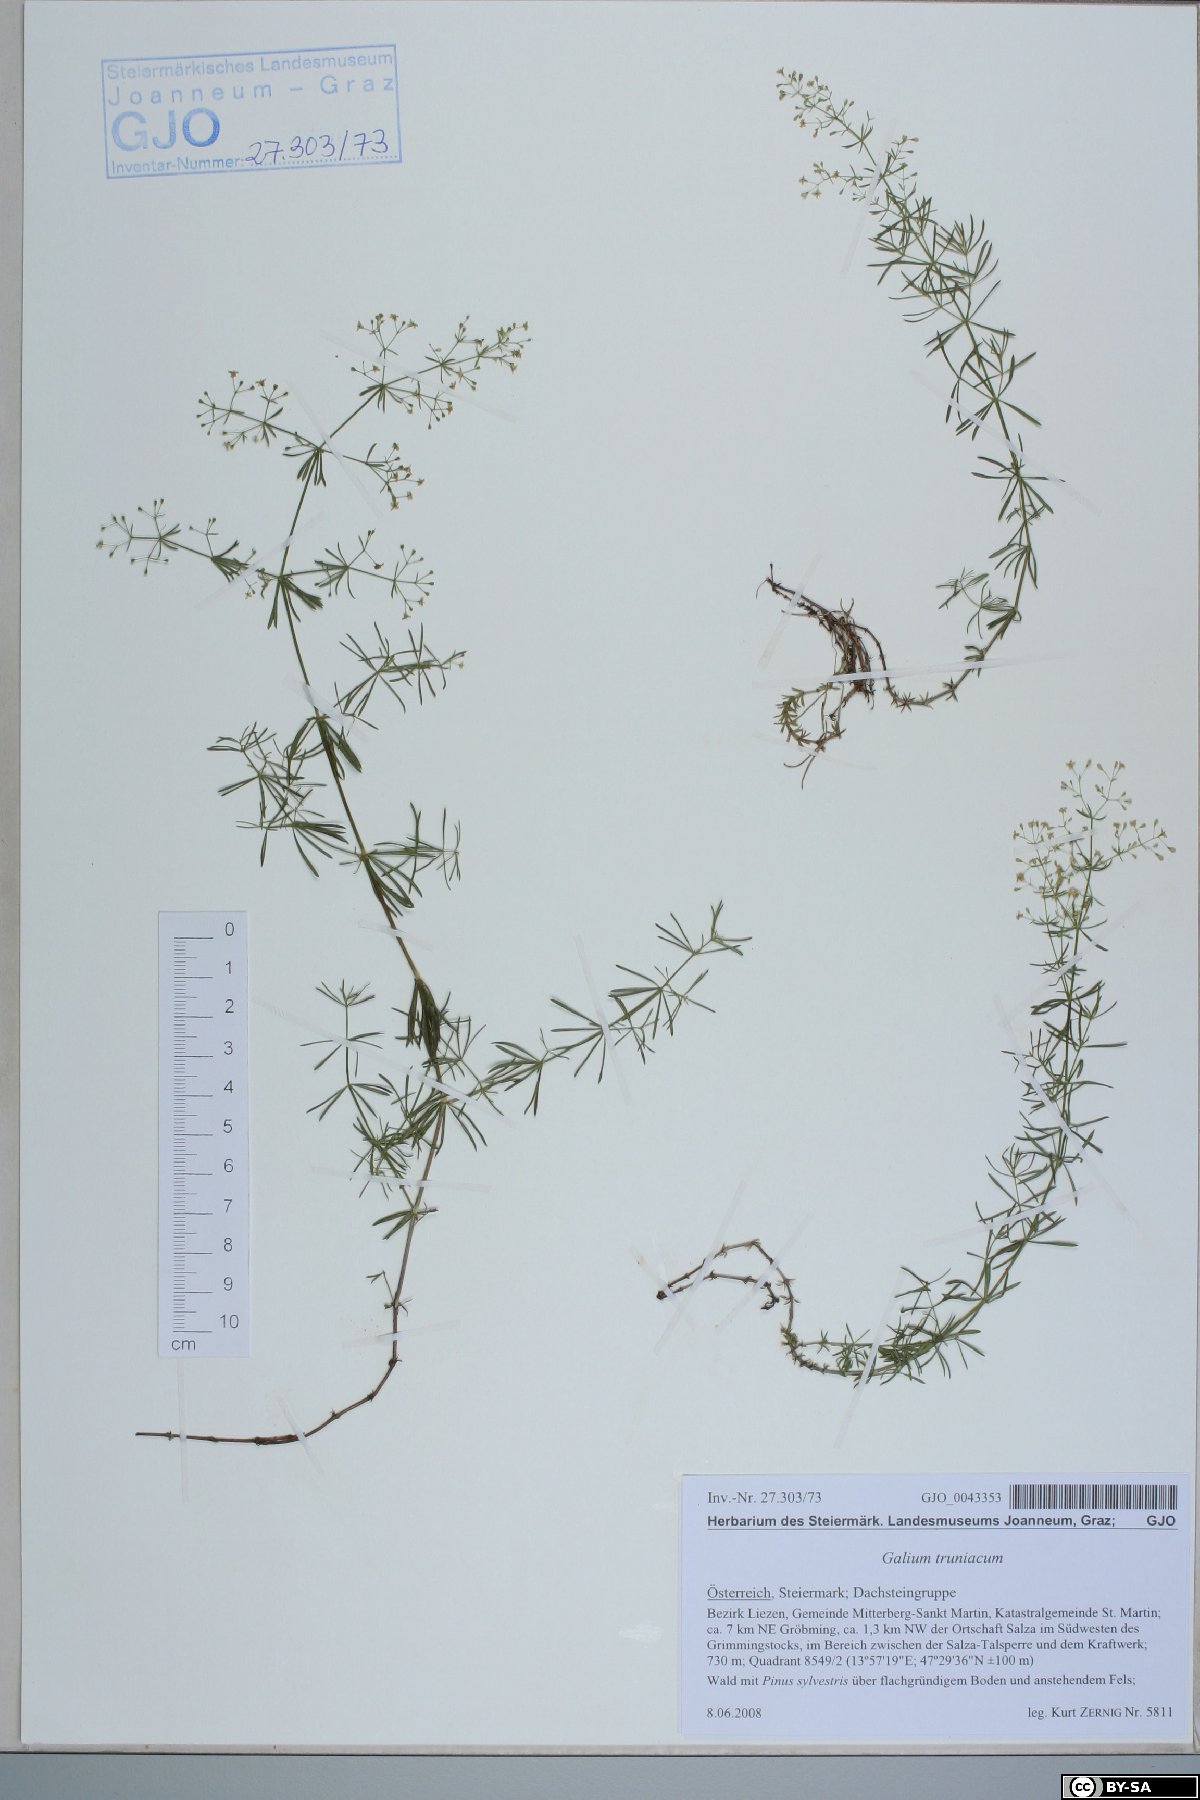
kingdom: Plantae
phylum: Tracheophyta
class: Magnoliopsida
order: Gentianales
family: Rubiaceae
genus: Galium
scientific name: Galium truniacum
